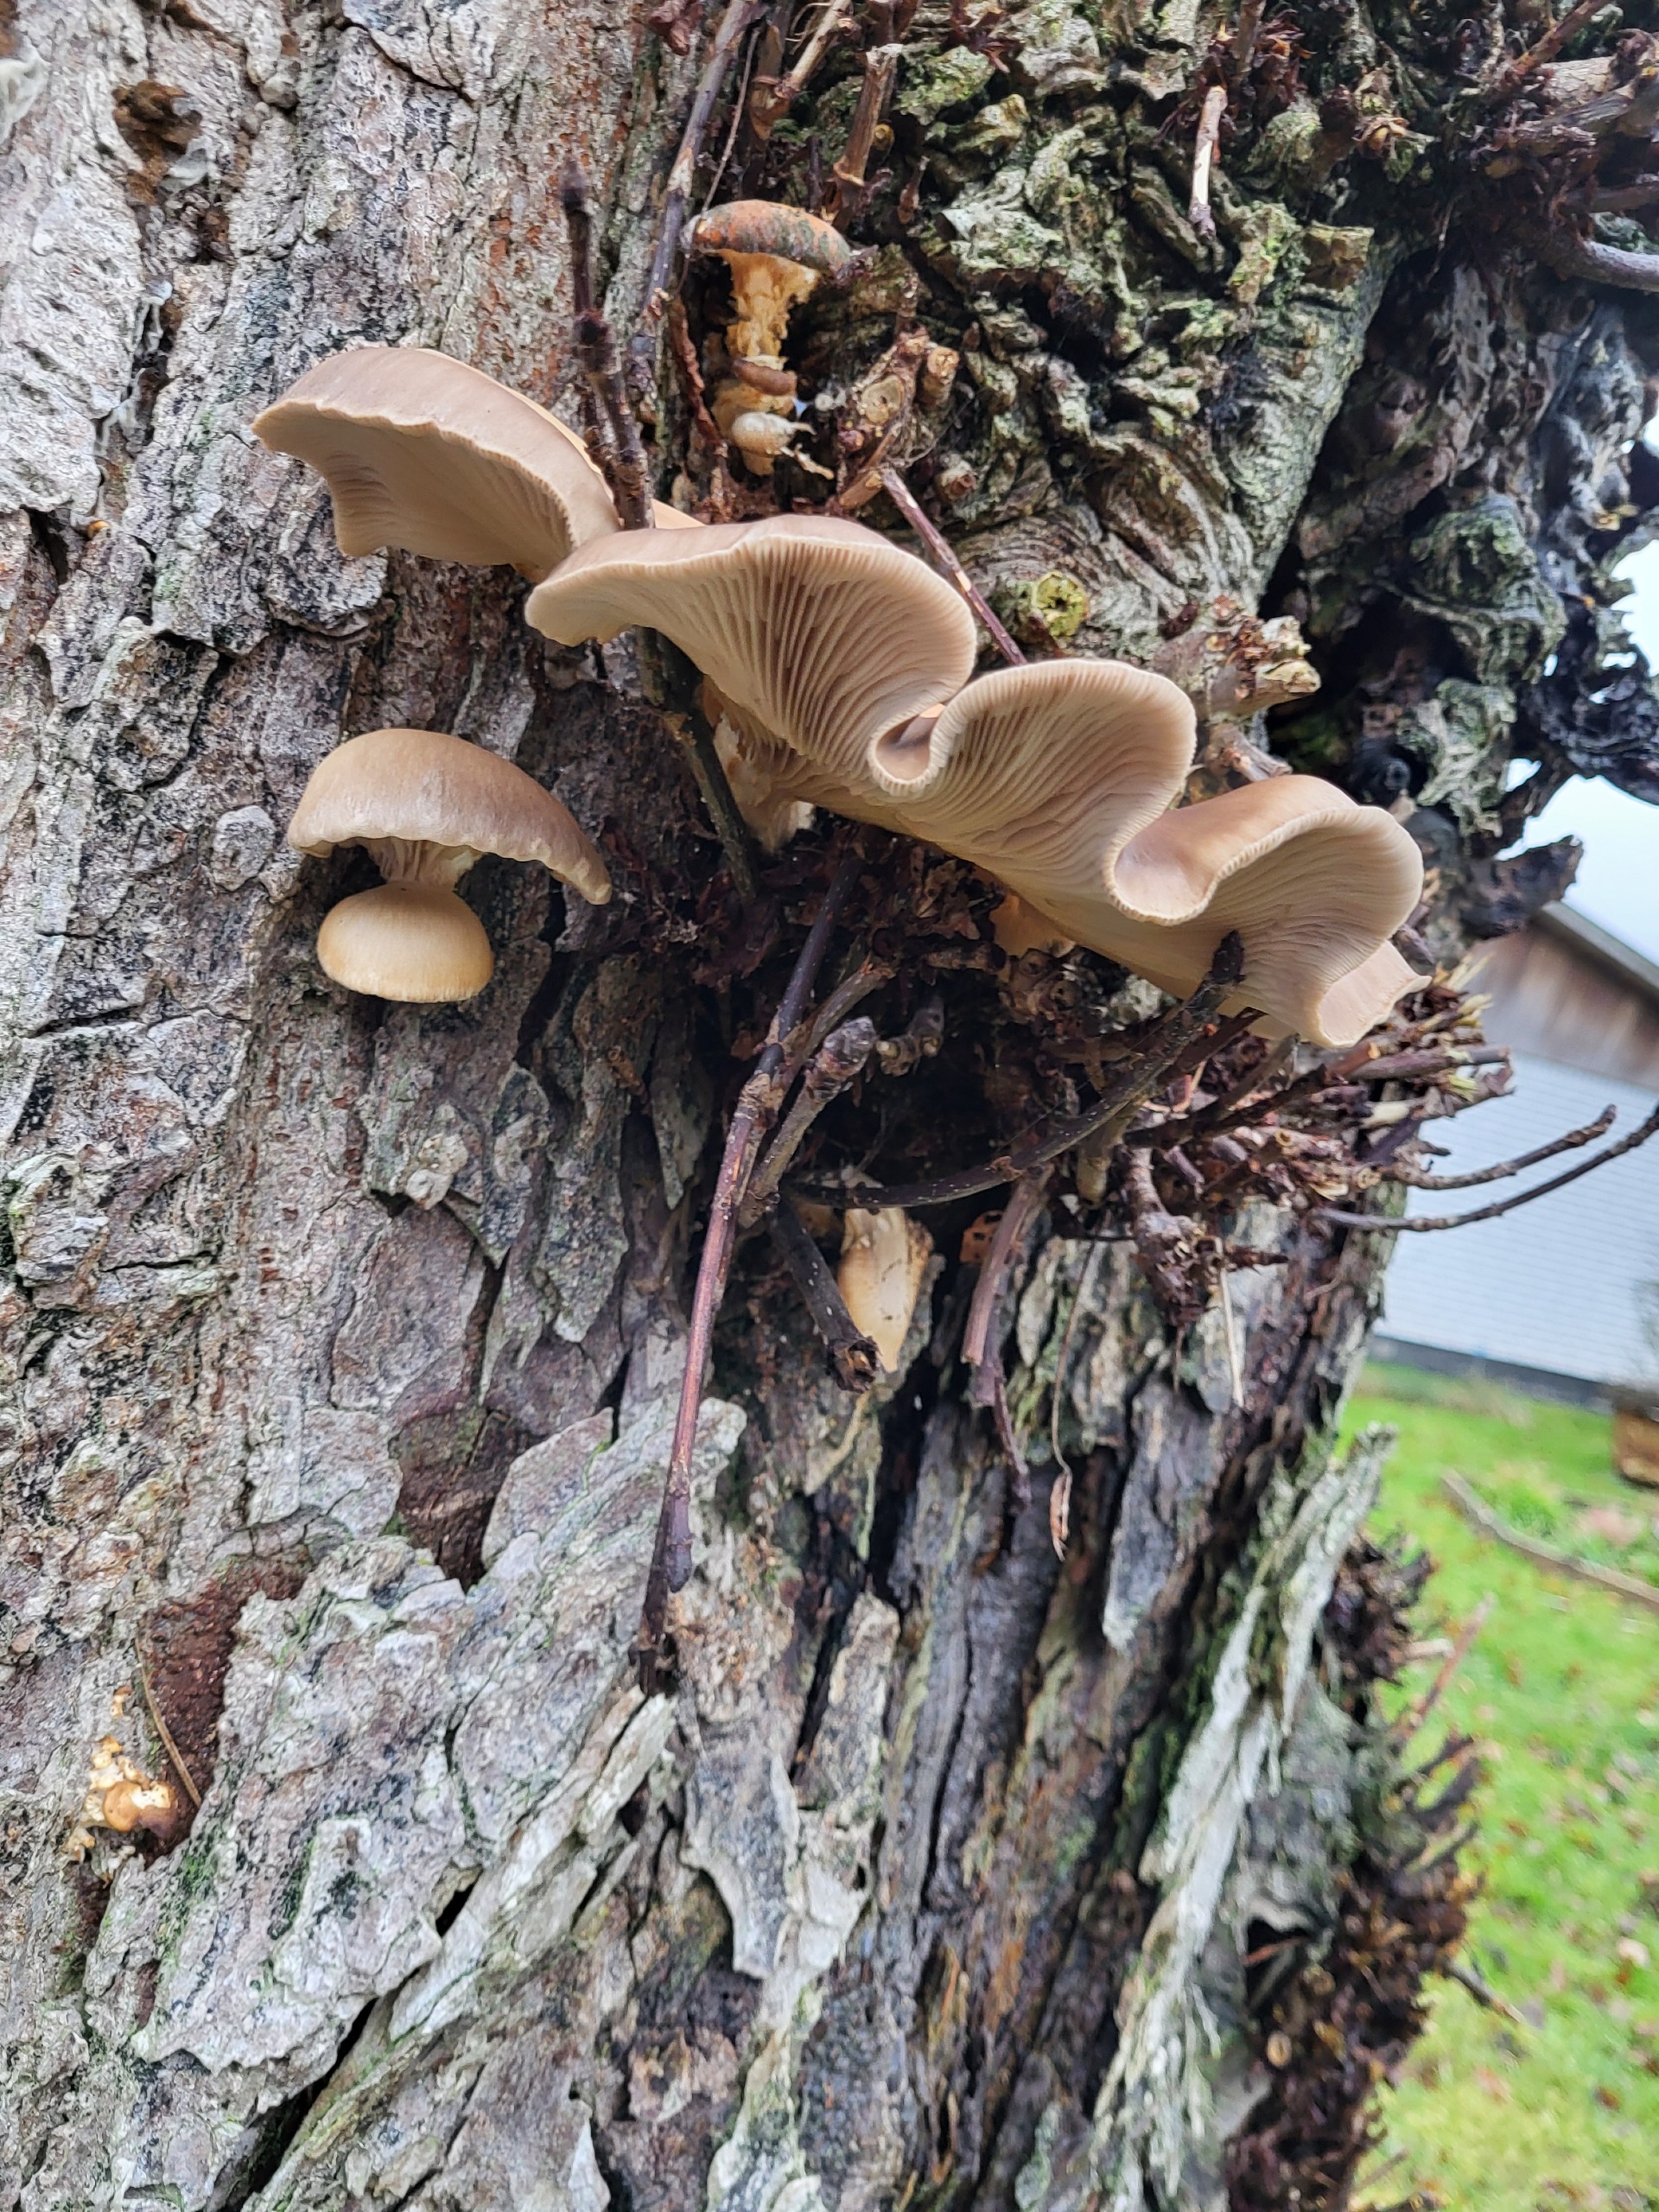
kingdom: Fungi
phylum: Basidiomycota
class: Agaricomycetes
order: Agaricales
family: Pleurotaceae
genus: Pleurotus
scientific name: Pleurotus ostreatus
